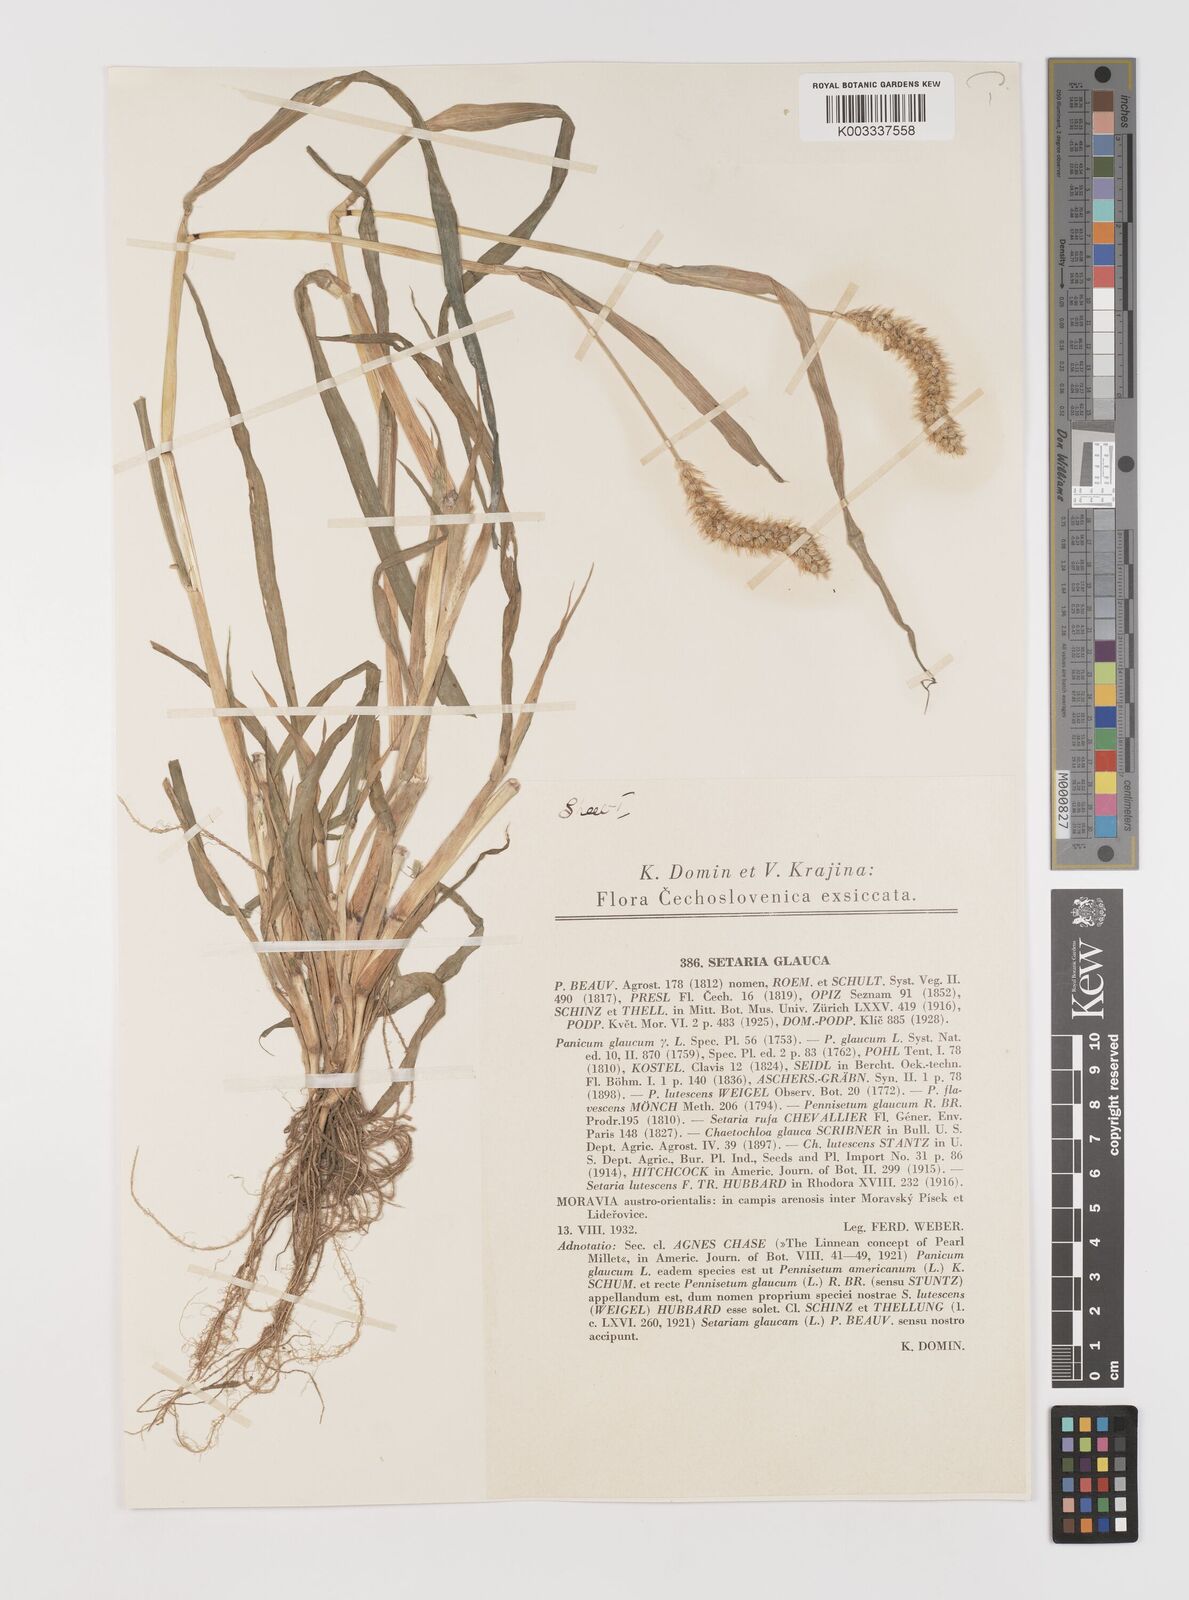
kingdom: Plantae
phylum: Tracheophyta
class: Liliopsida
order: Poales
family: Poaceae
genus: Setaria
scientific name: Setaria pumila
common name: Yellow bristle-grass
